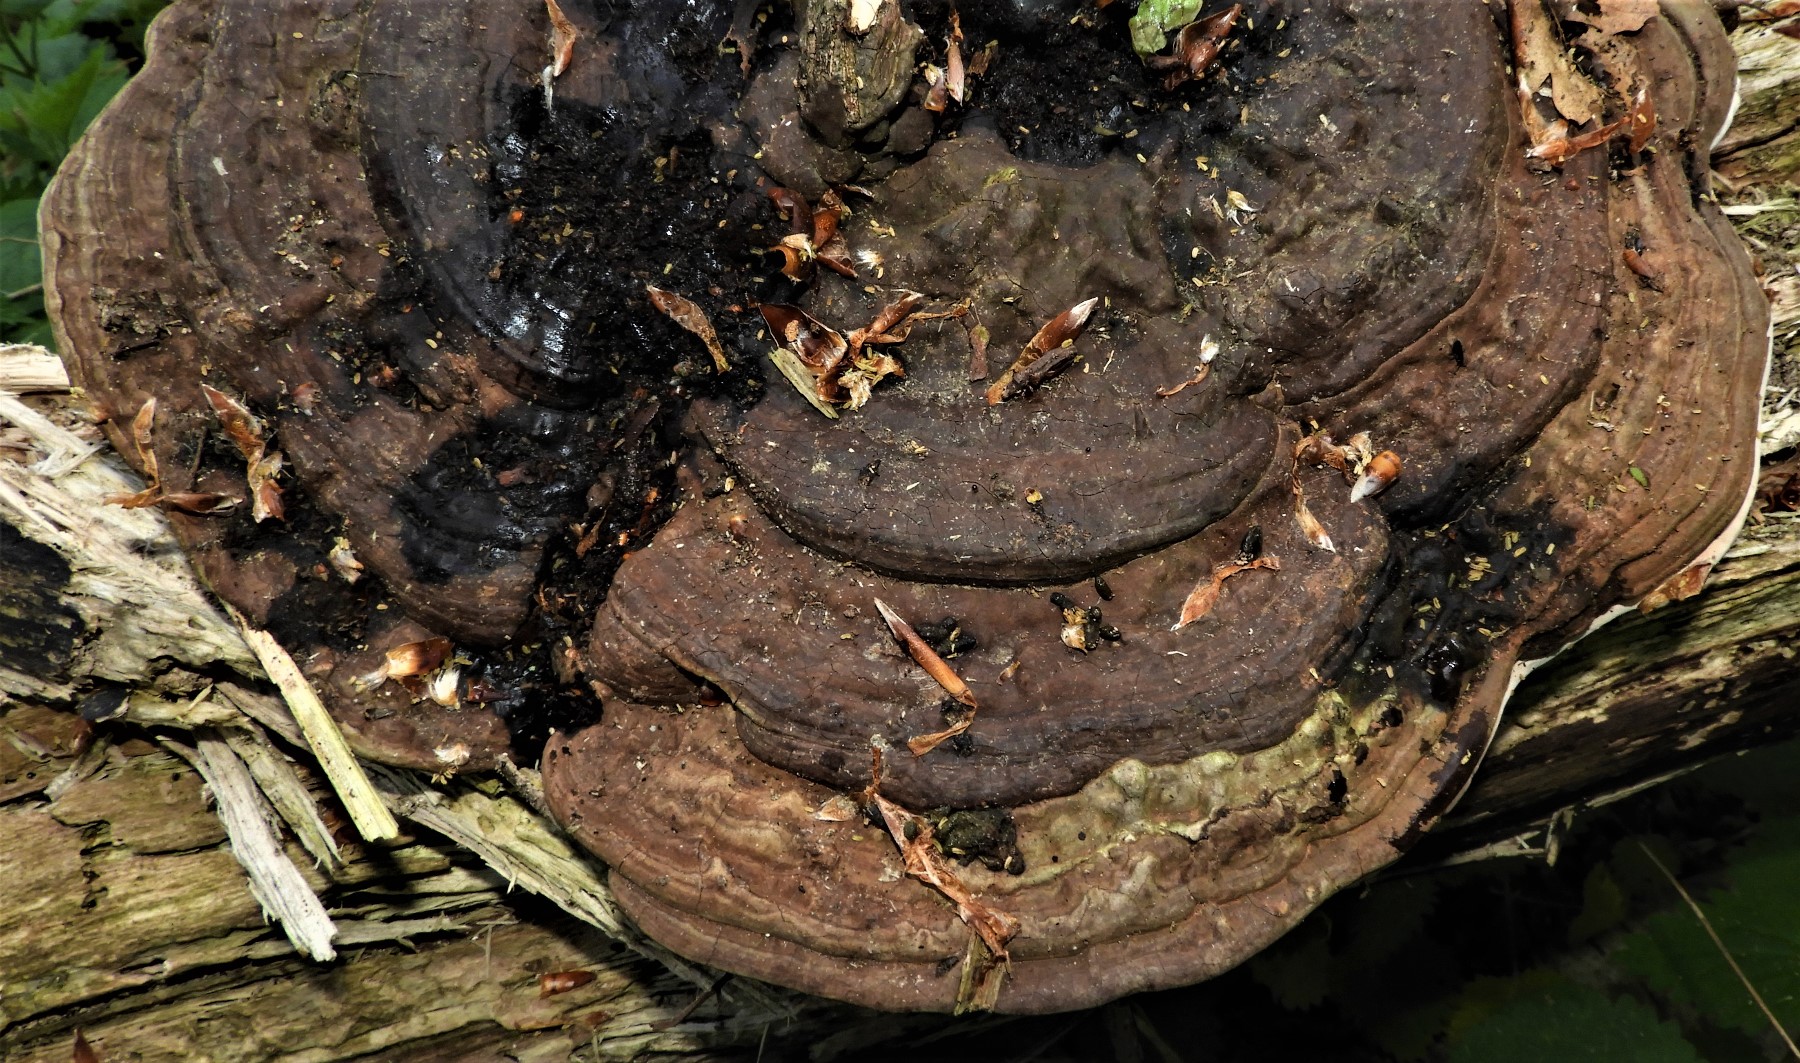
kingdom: Fungi
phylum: Basidiomycota
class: Agaricomycetes
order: Polyporales
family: Polyporaceae
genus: Ganoderma
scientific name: Ganoderma applanatum
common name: flad lakporesvamp
